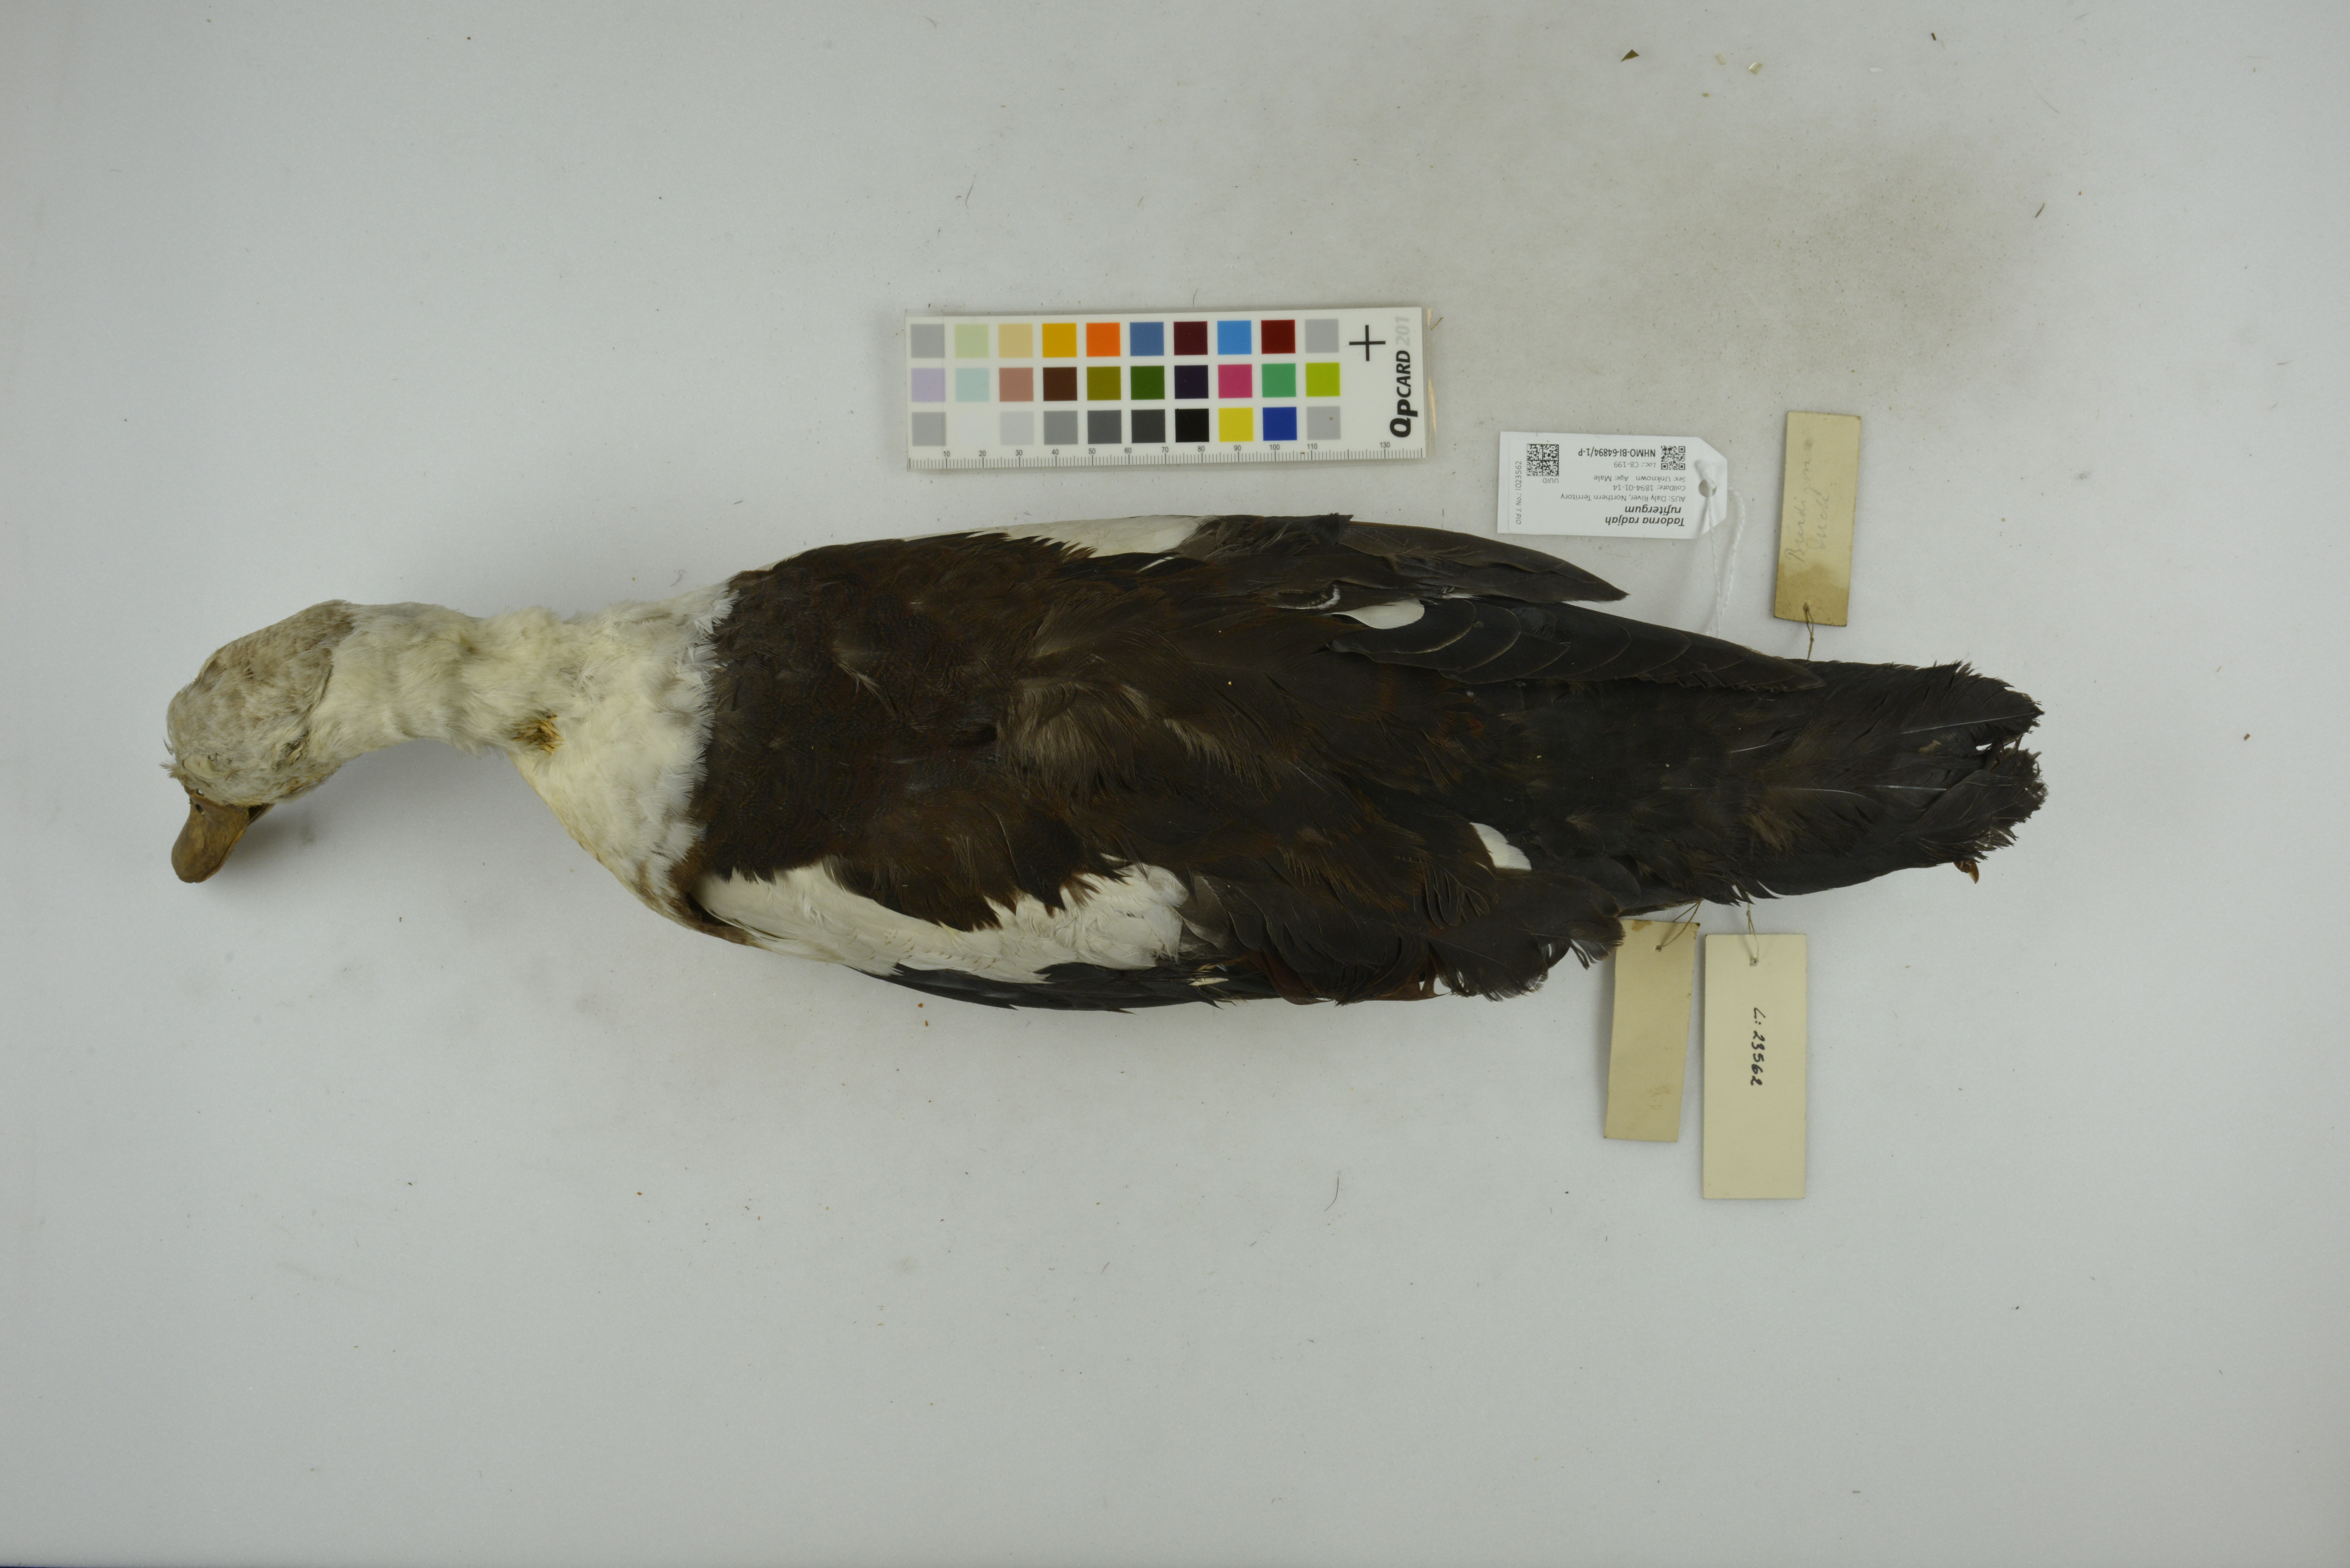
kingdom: Animalia
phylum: Chordata
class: Aves
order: Anseriformes
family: Anatidae
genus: Radjah
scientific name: Radjah radjah
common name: Radjah shelduck
